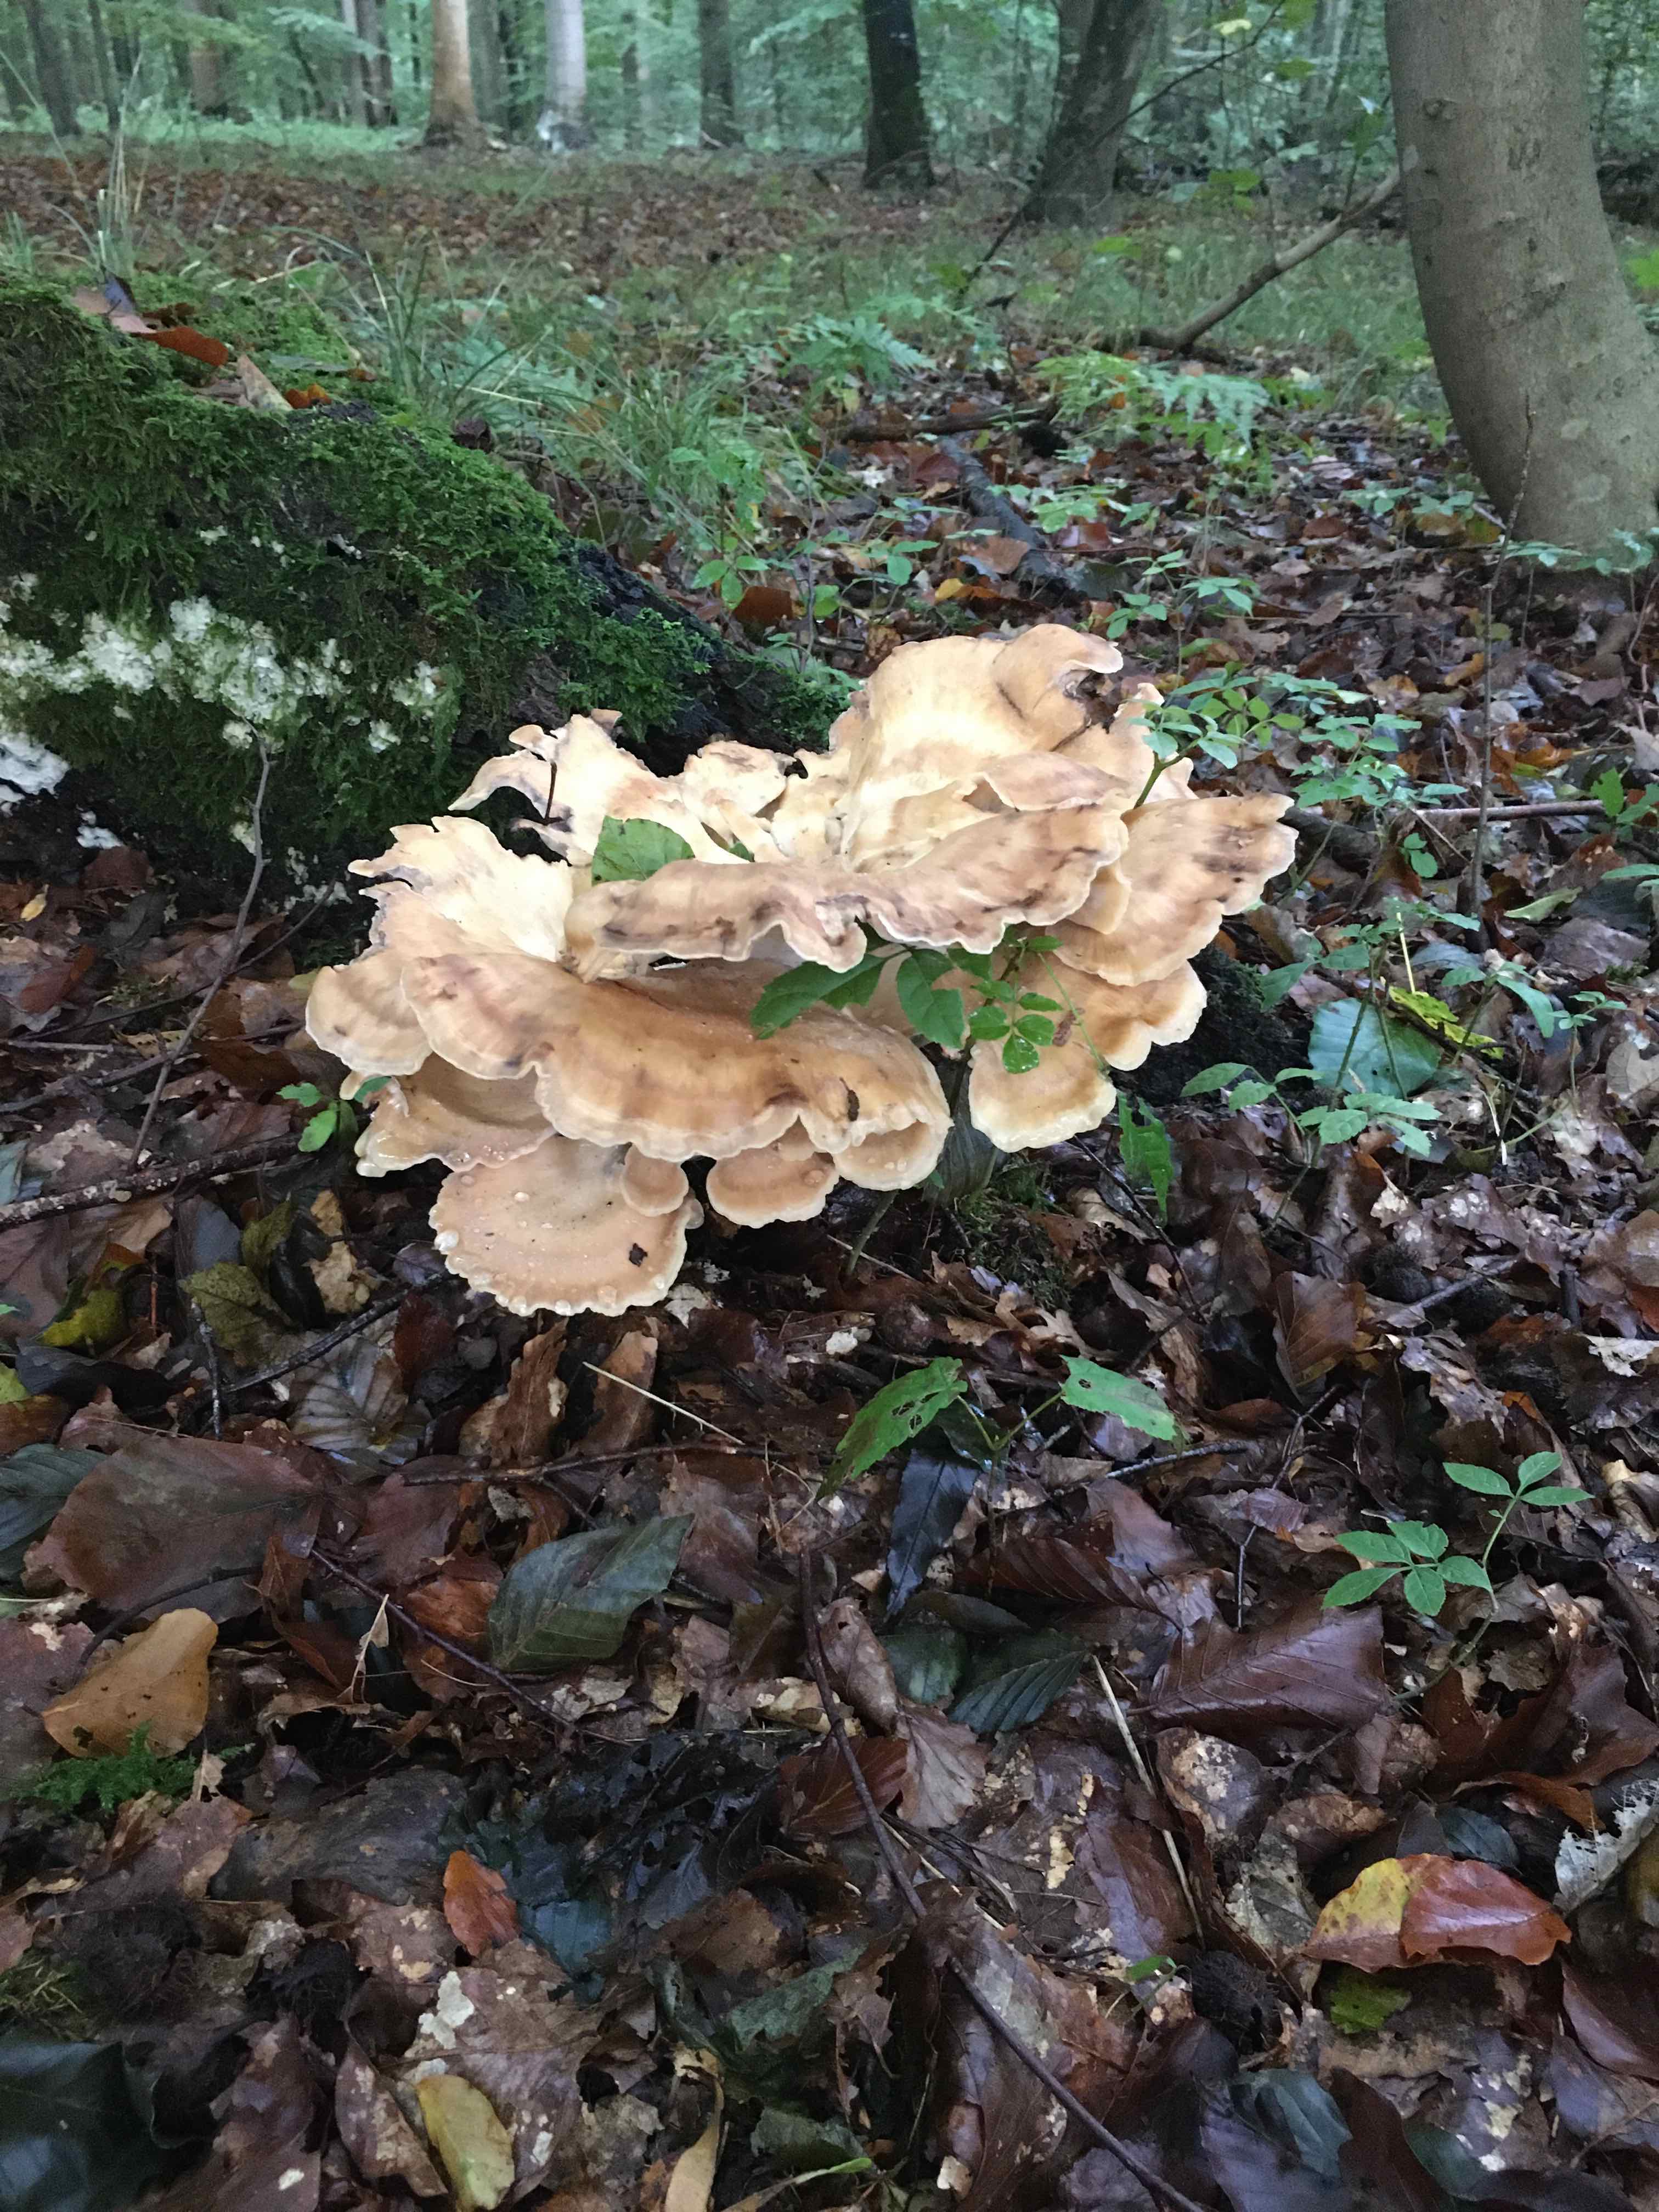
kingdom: Fungi
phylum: Basidiomycota
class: Agaricomycetes
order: Polyporales
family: Meripilaceae
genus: Meripilus
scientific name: Meripilus giganteus
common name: kæmpeporesvamp
